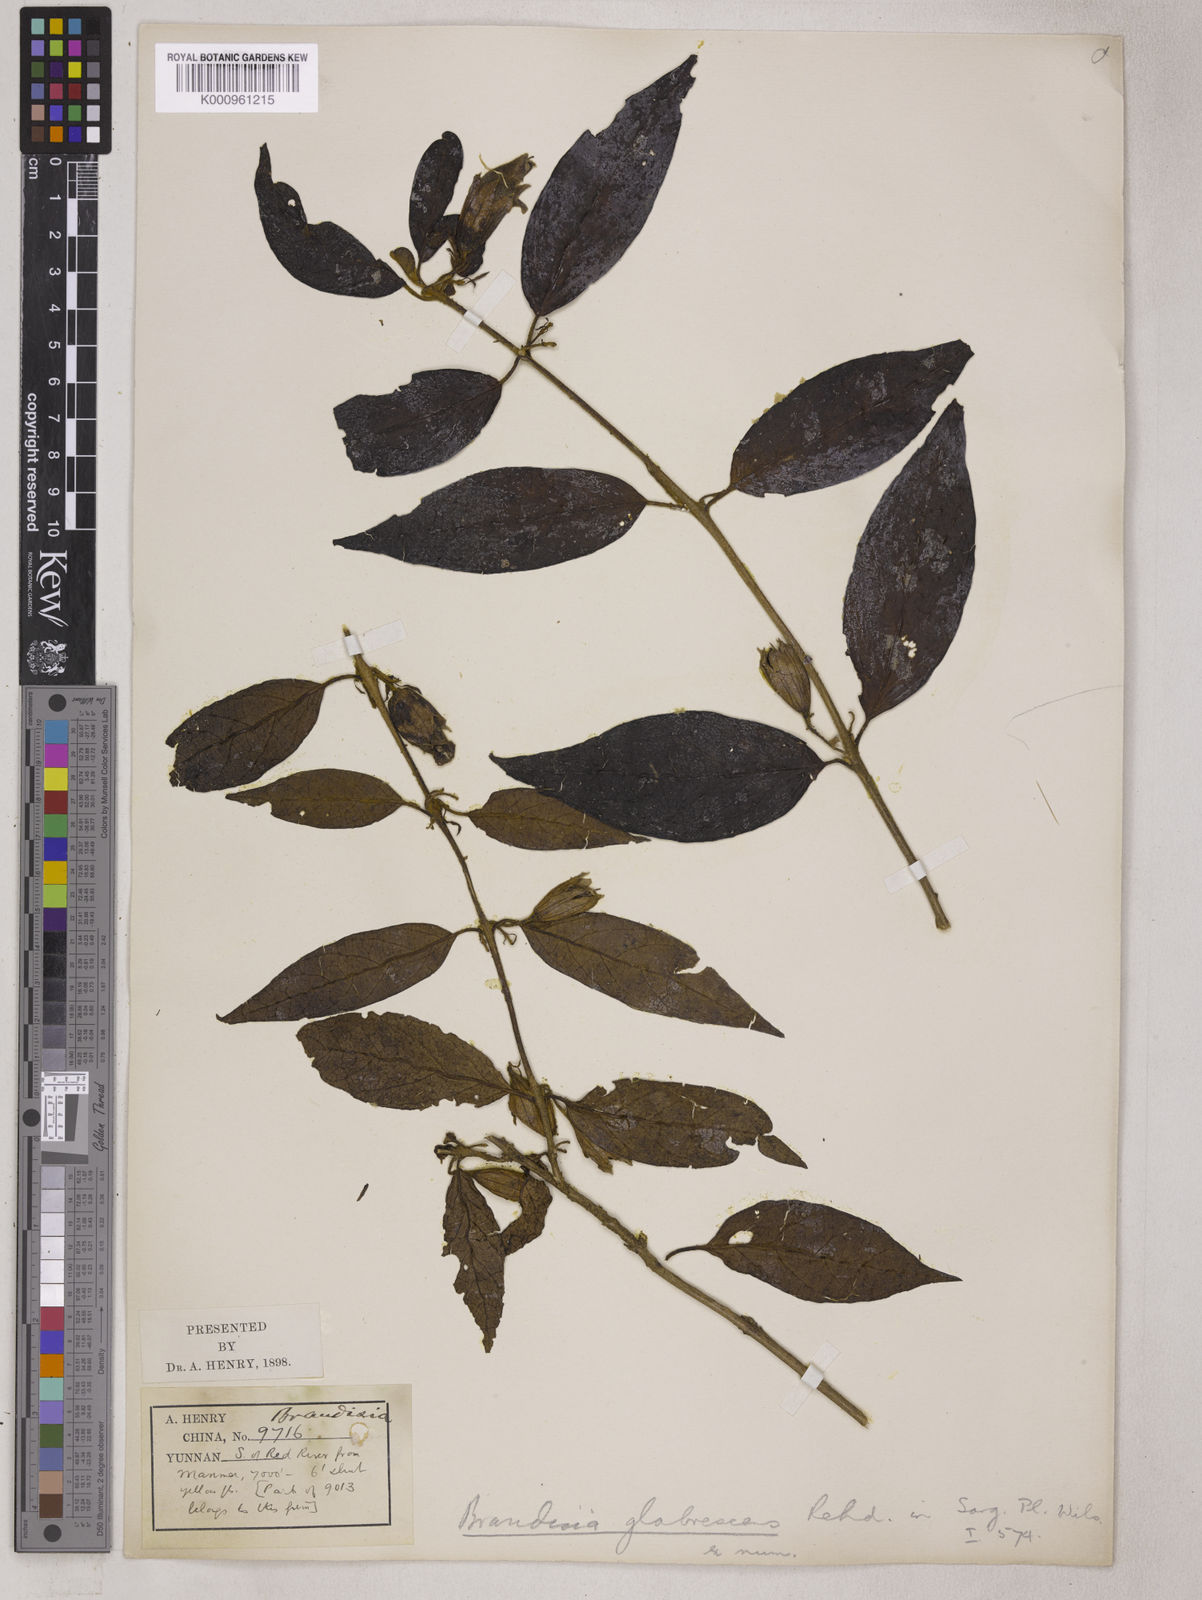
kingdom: Plantae
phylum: Tracheophyta
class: Magnoliopsida
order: Lamiales
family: Orobanchaceae
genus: Brandisia
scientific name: Brandisia glabrescens
